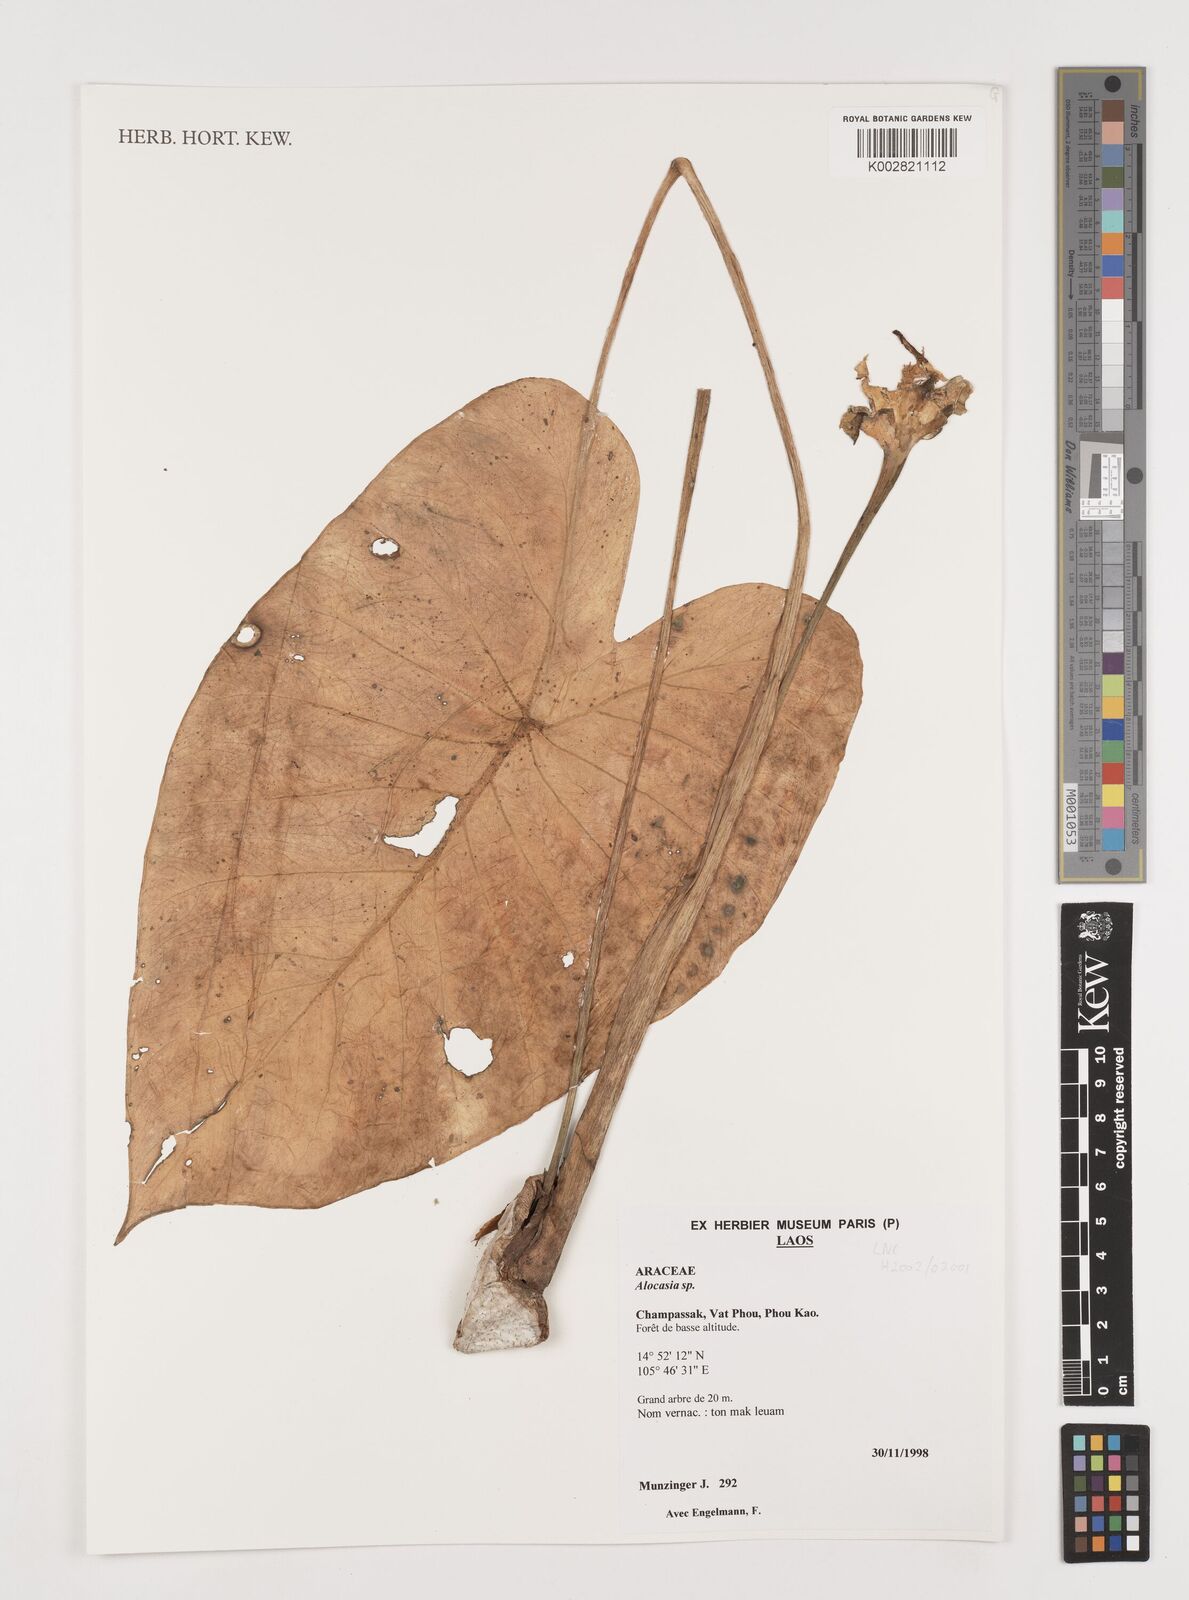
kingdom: Plantae
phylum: Tracheophyta
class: Liliopsida
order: Alismatales
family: Araceae
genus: Alocasia
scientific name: Alocasia
